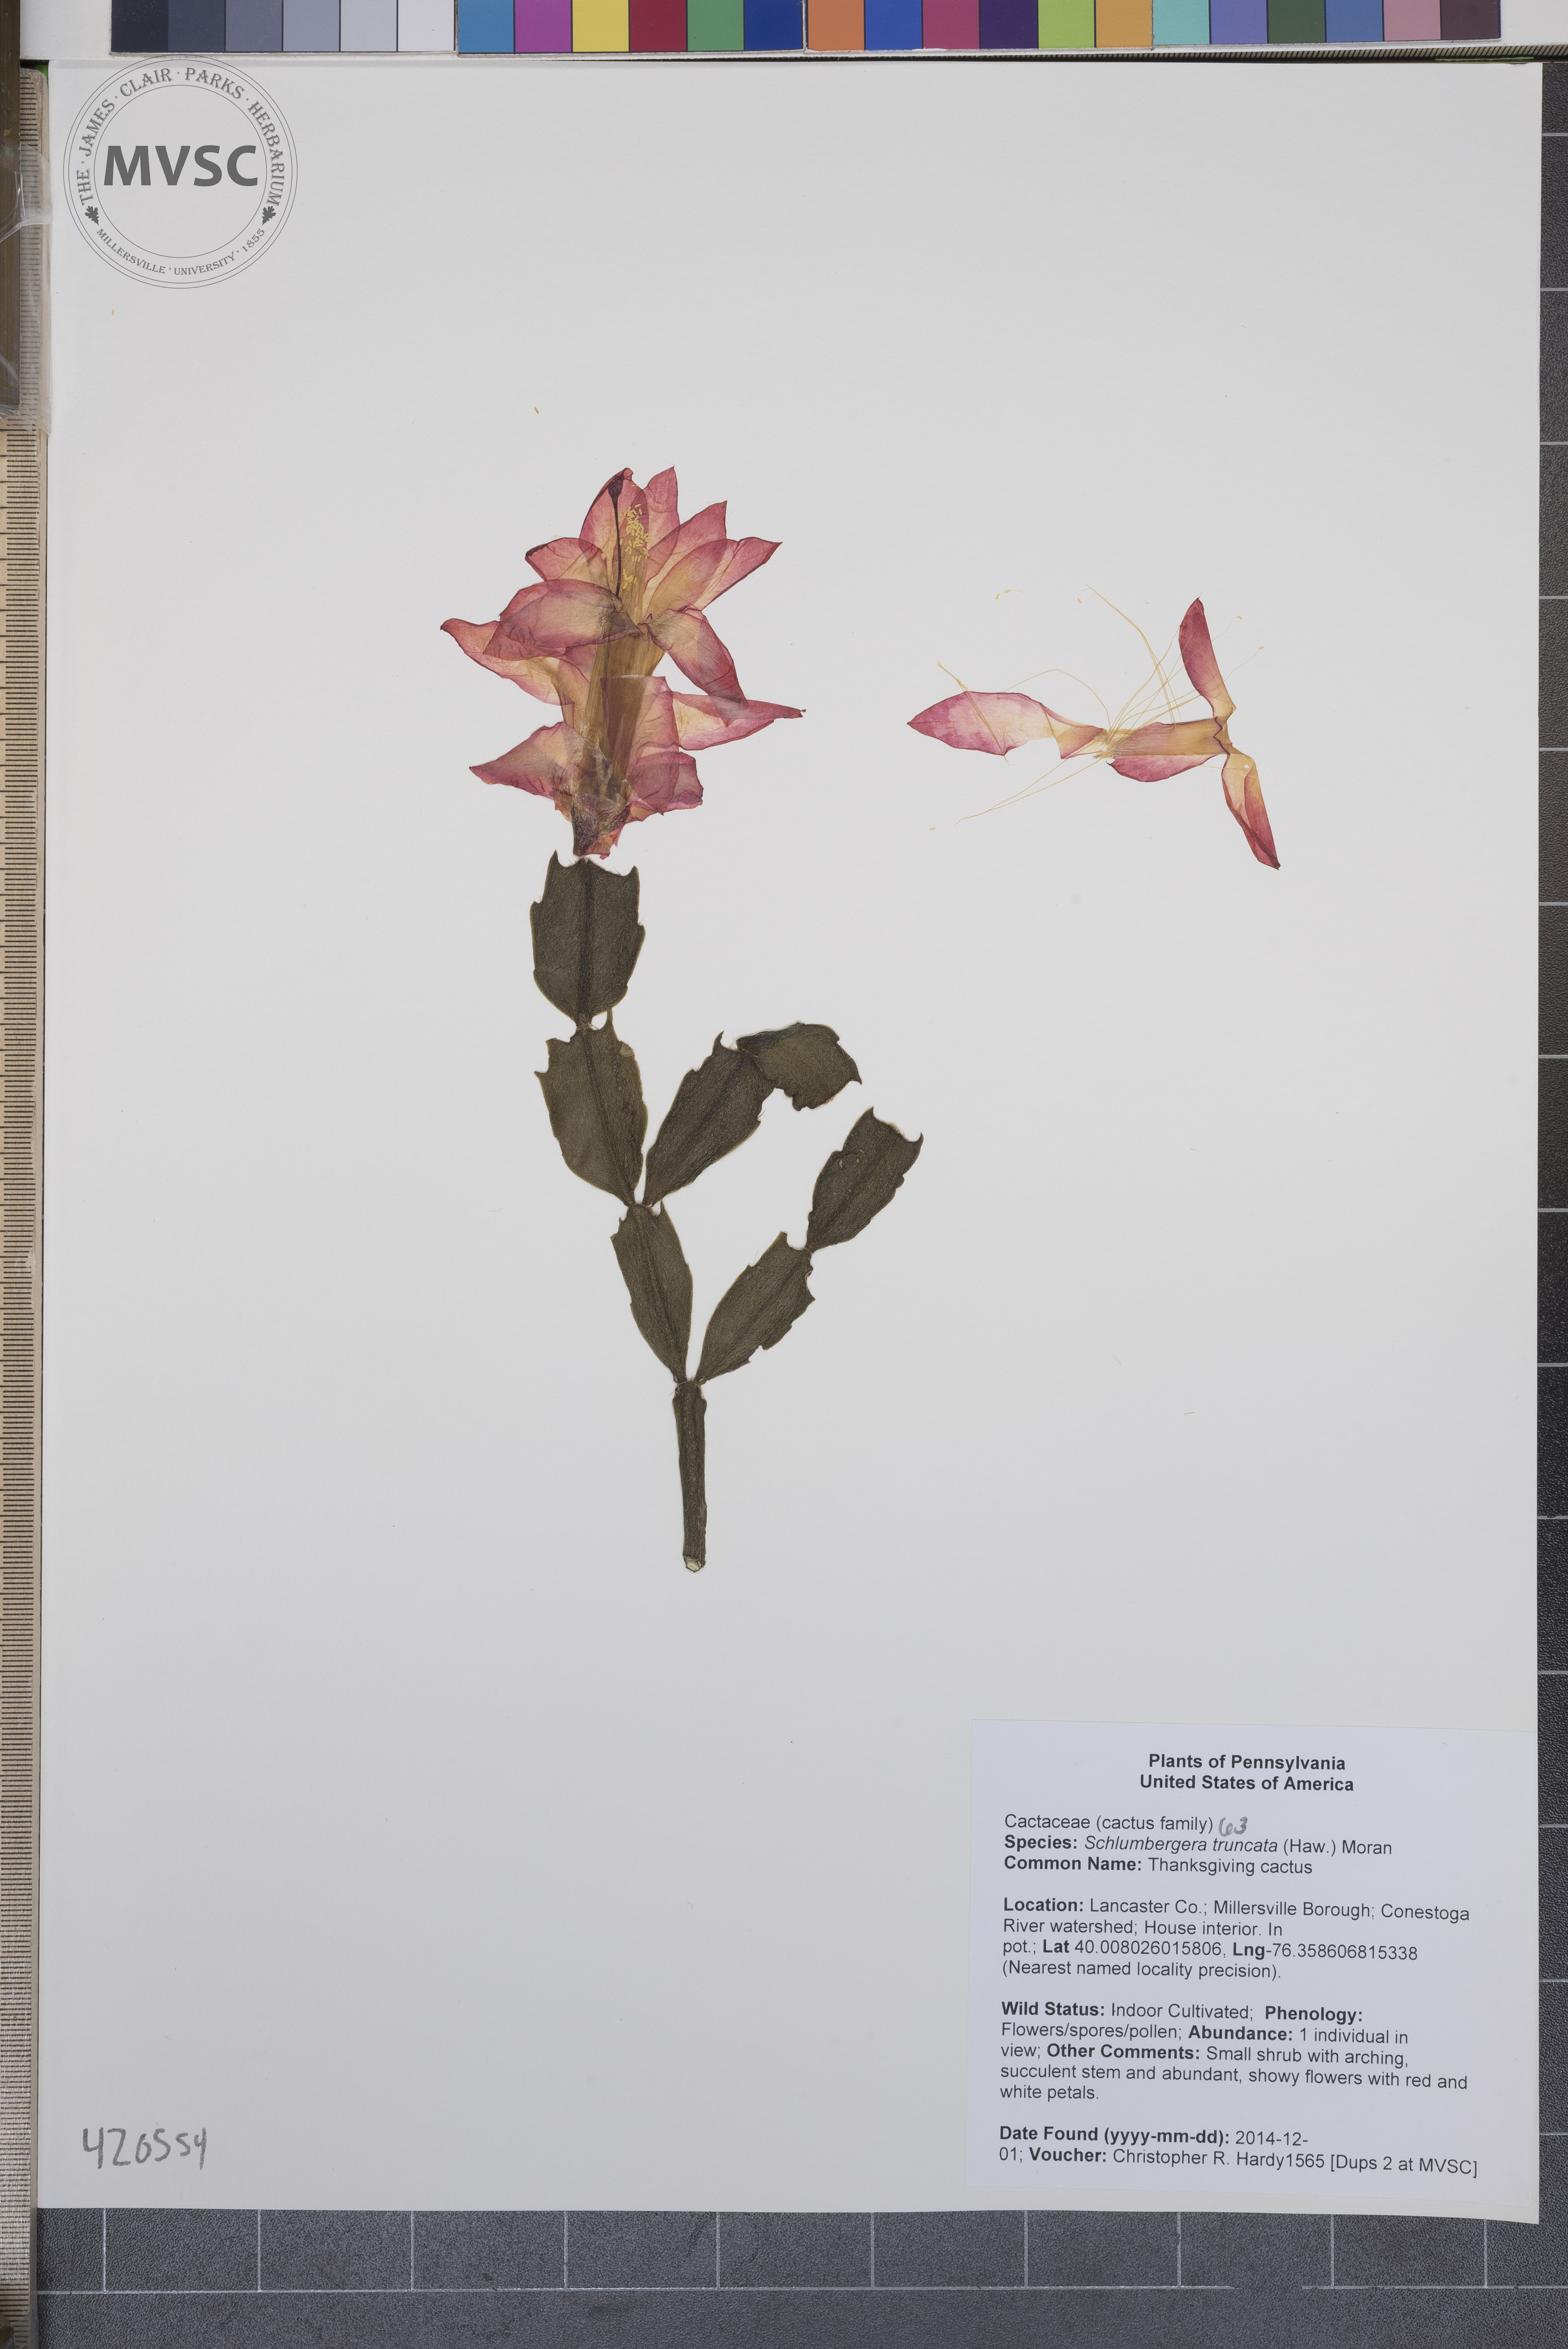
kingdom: Plantae
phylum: Tracheophyta
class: Magnoliopsida
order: Caryophyllales
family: Cactaceae
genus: Schlumbergera
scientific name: Schlumbergera truncata
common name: Thanksgiving Cactus
